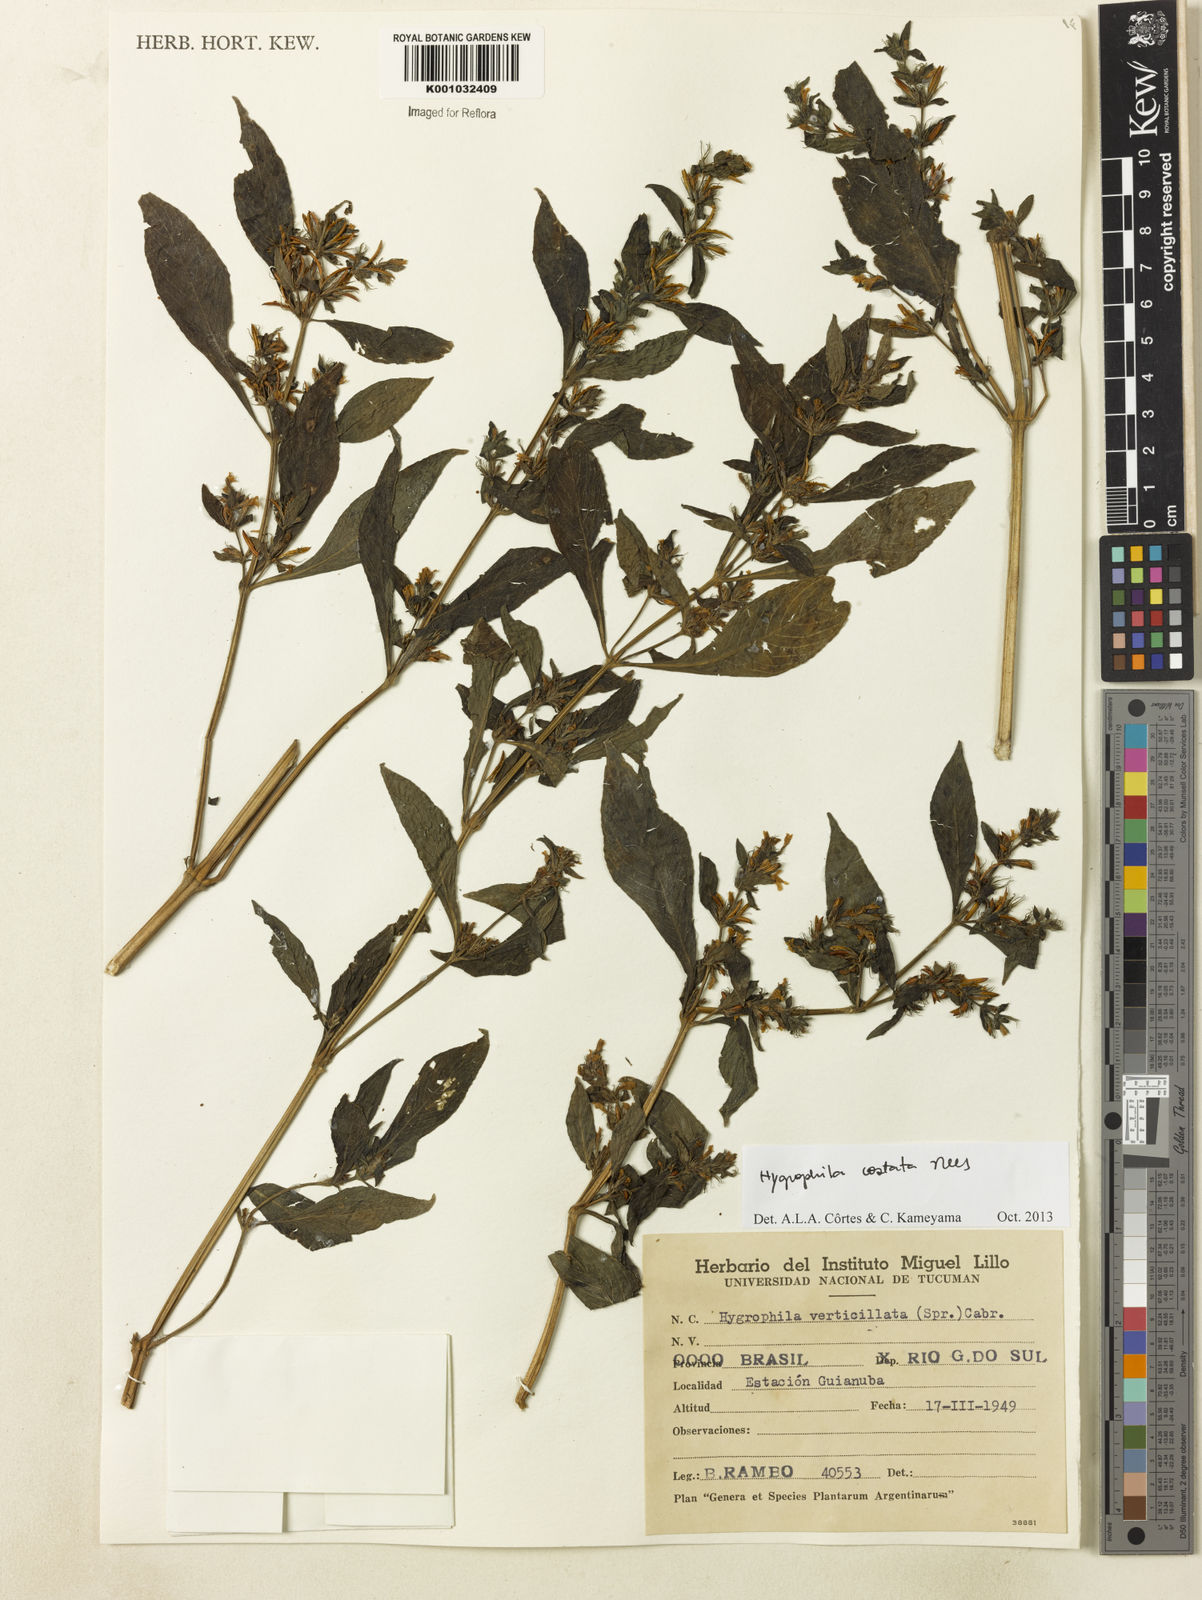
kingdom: Plantae
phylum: Tracheophyta
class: Magnoliopsida
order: Lamiales
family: Acanthaceae
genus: Hygrophila
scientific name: Hygrophila costata
